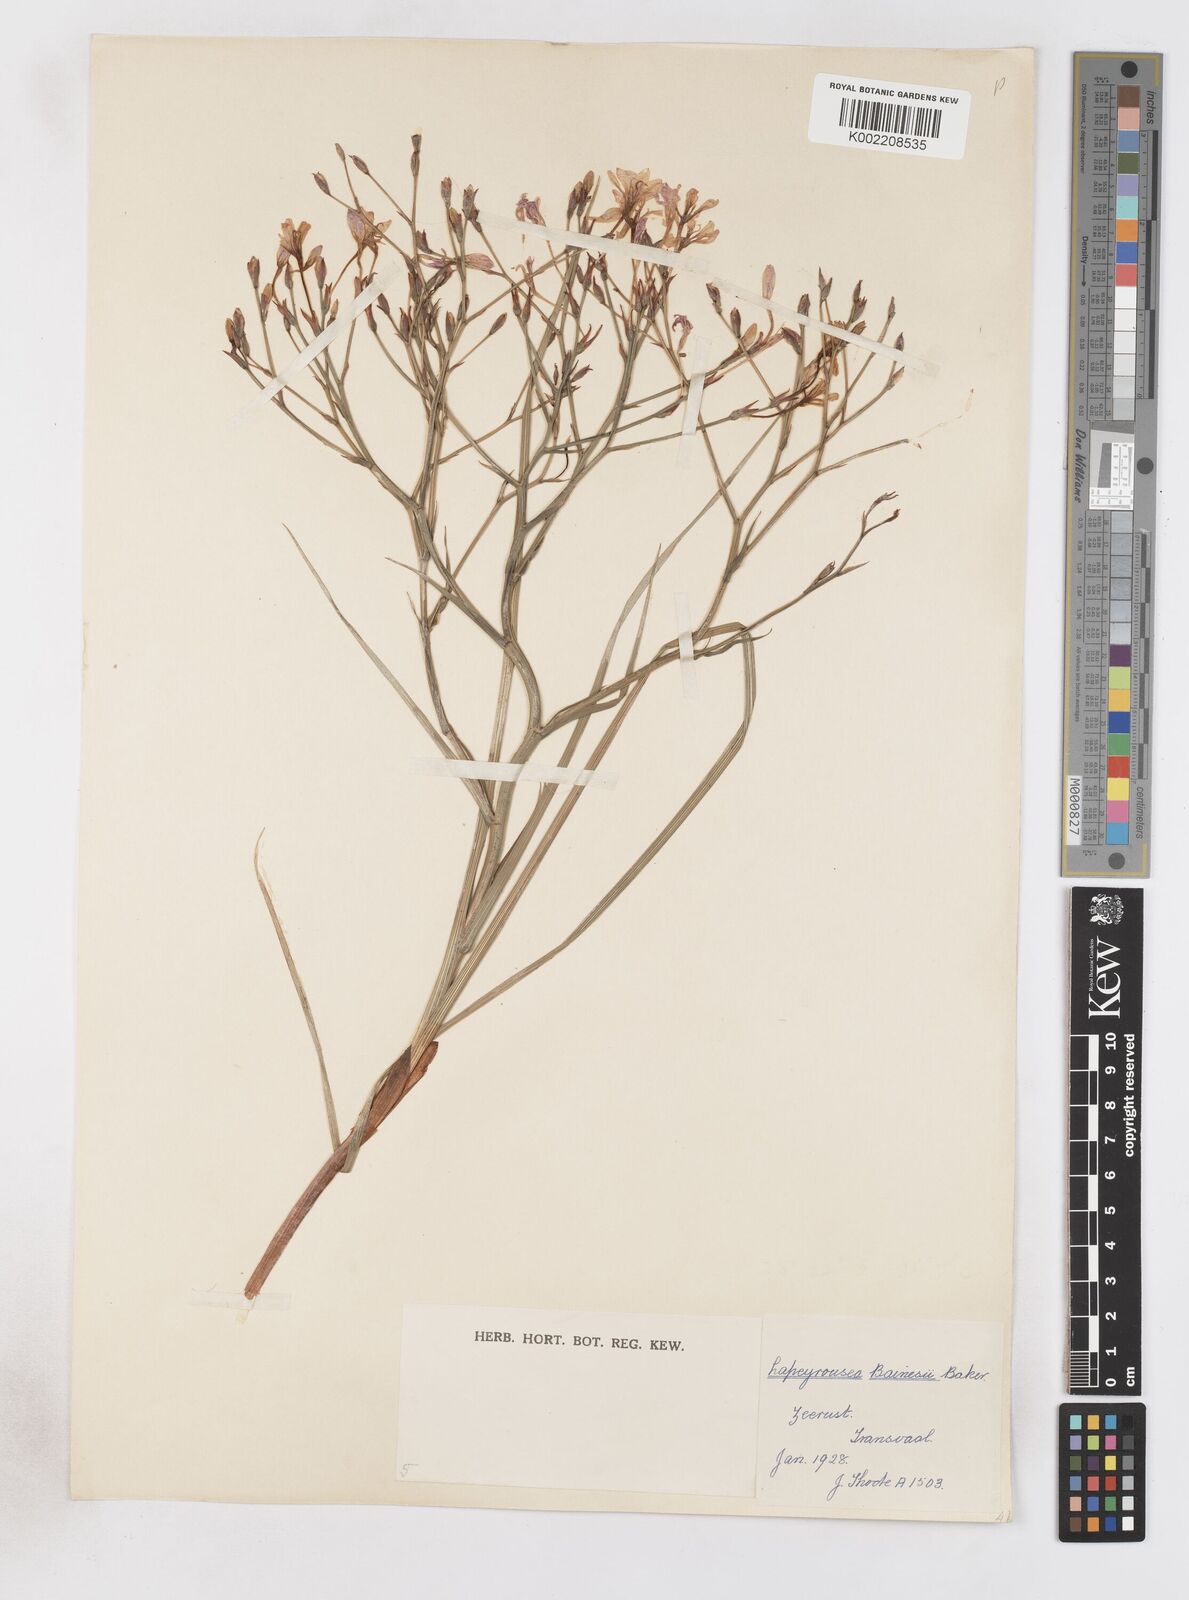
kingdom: Plantae
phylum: Tracheophyta
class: Liliopsida
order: Asparagales
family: Iridaceae
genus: Afrosolen
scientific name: Afrosolen sandersonii
